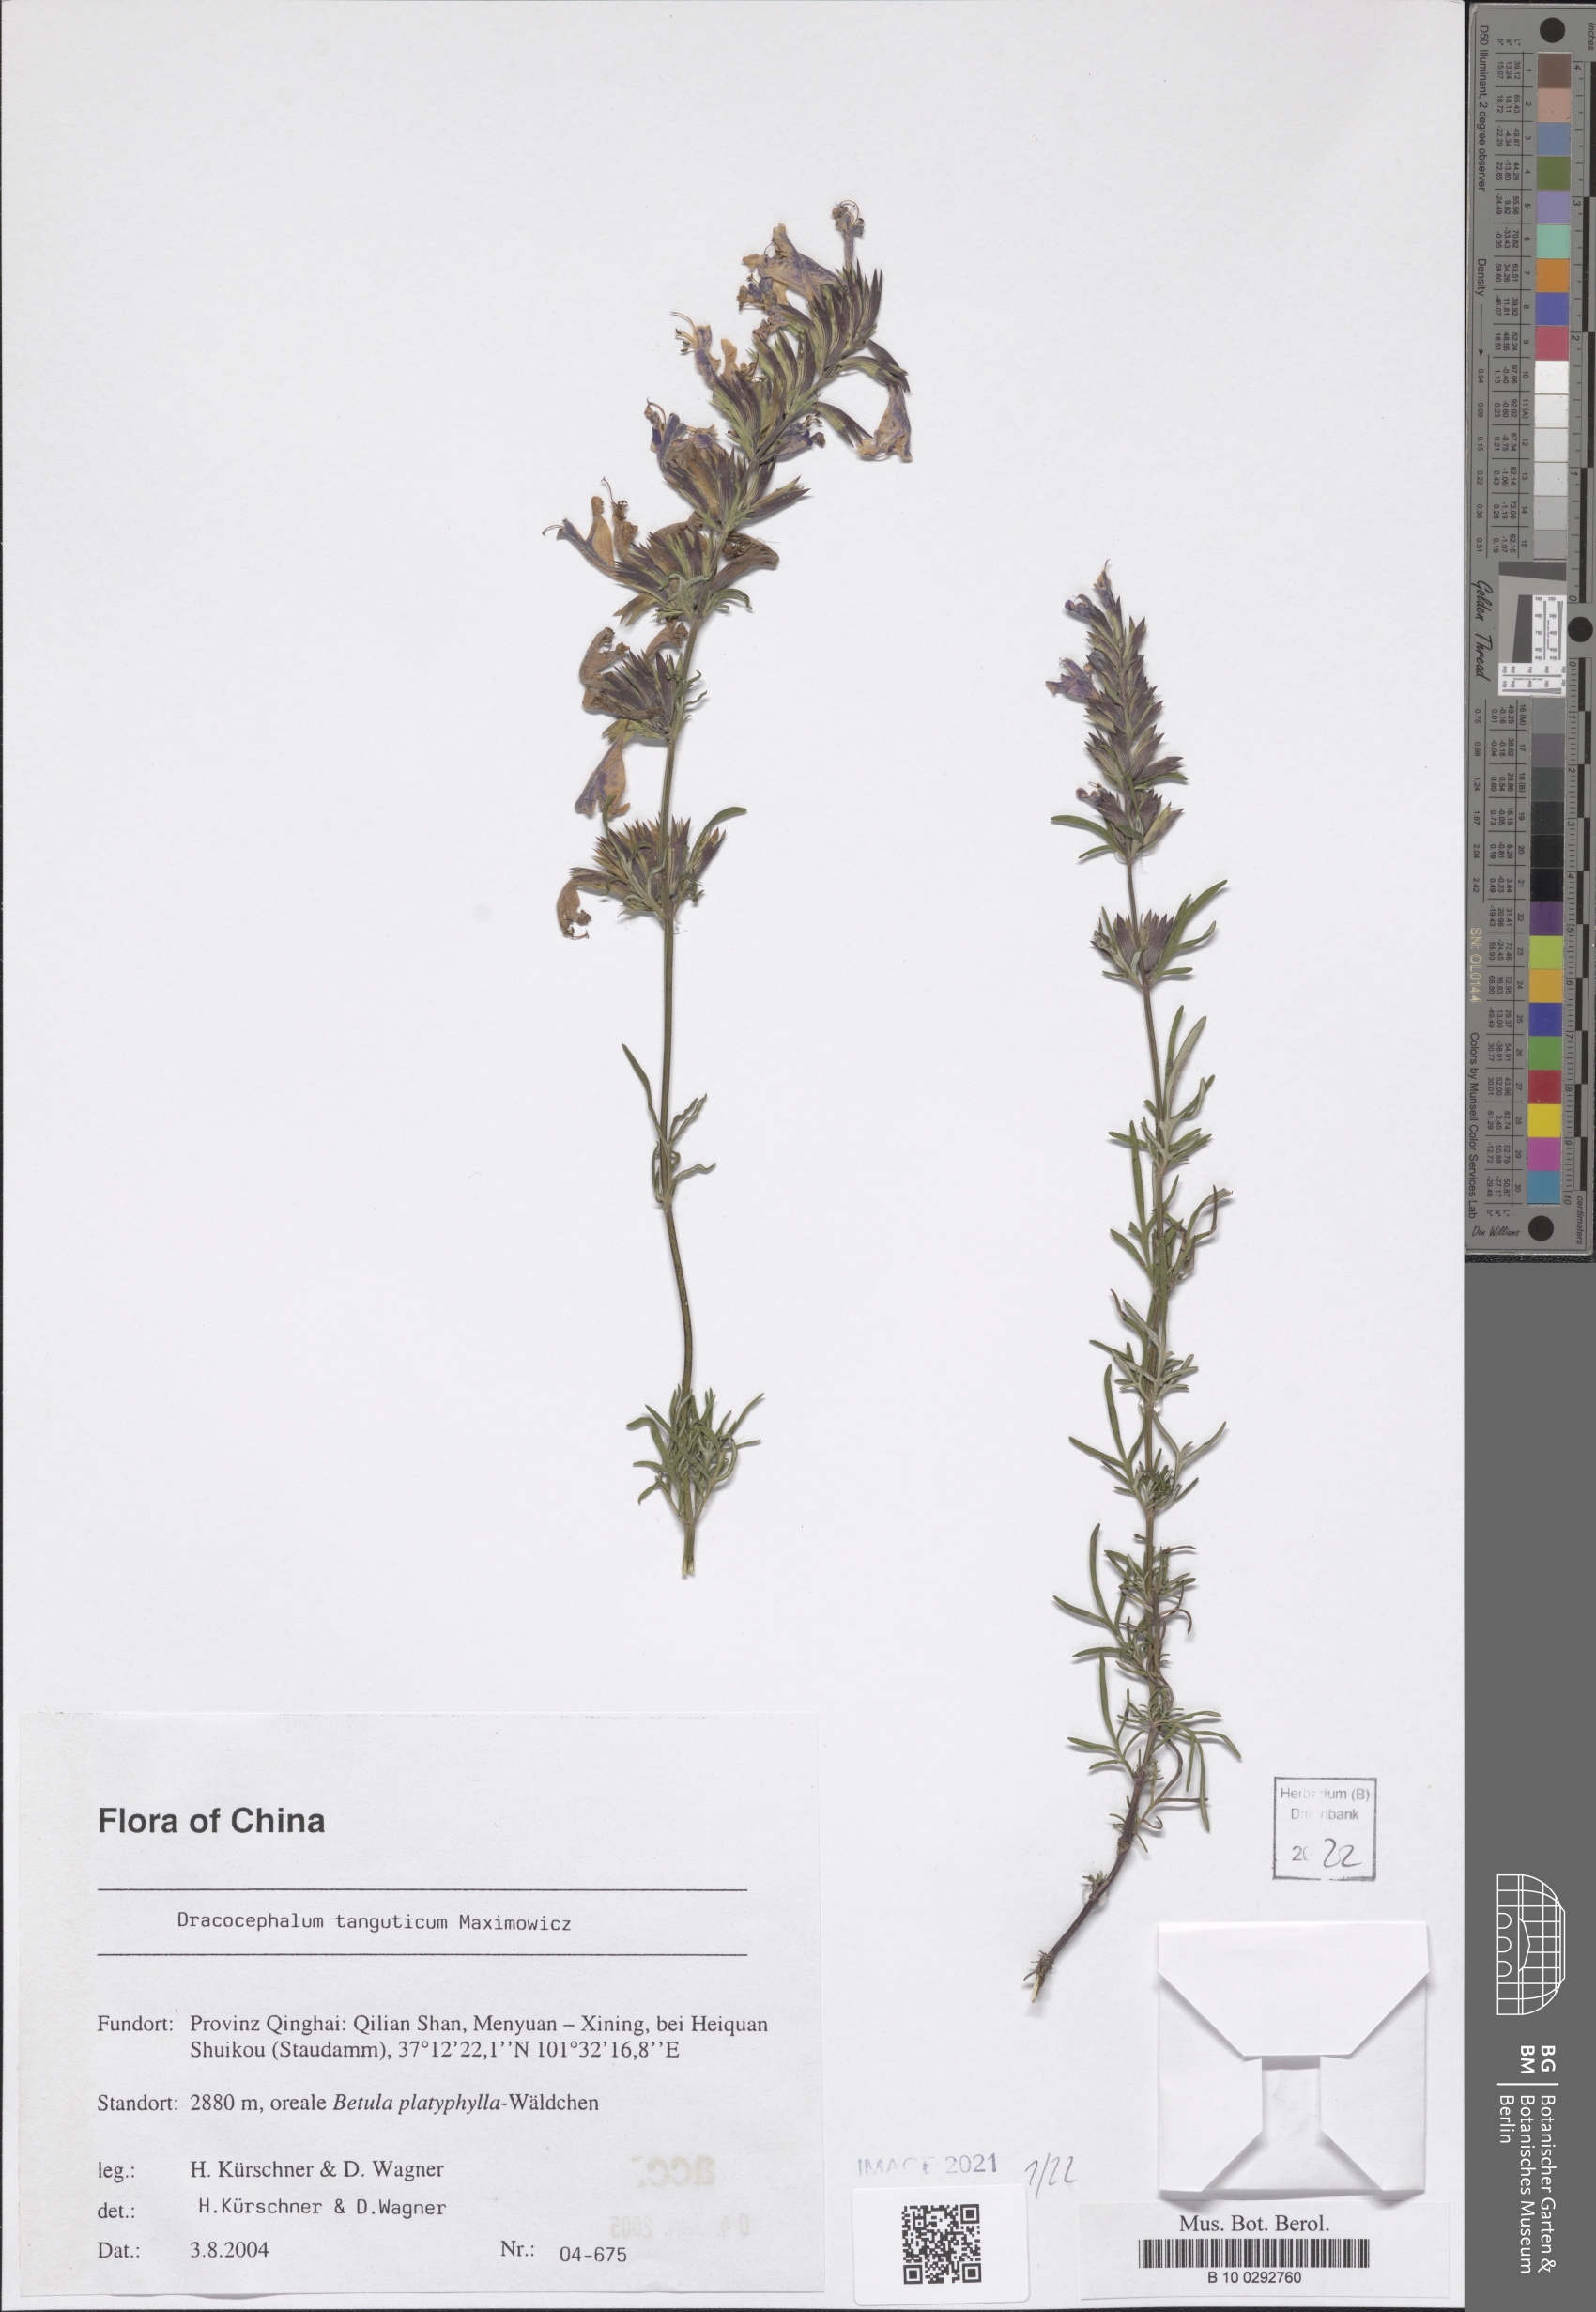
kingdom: Plantae
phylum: Tracheophyta
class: Magnoliopsida
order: Lamiales
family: Lamiaceae
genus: Dracocephalum
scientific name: Dracocephalum tanguticum
